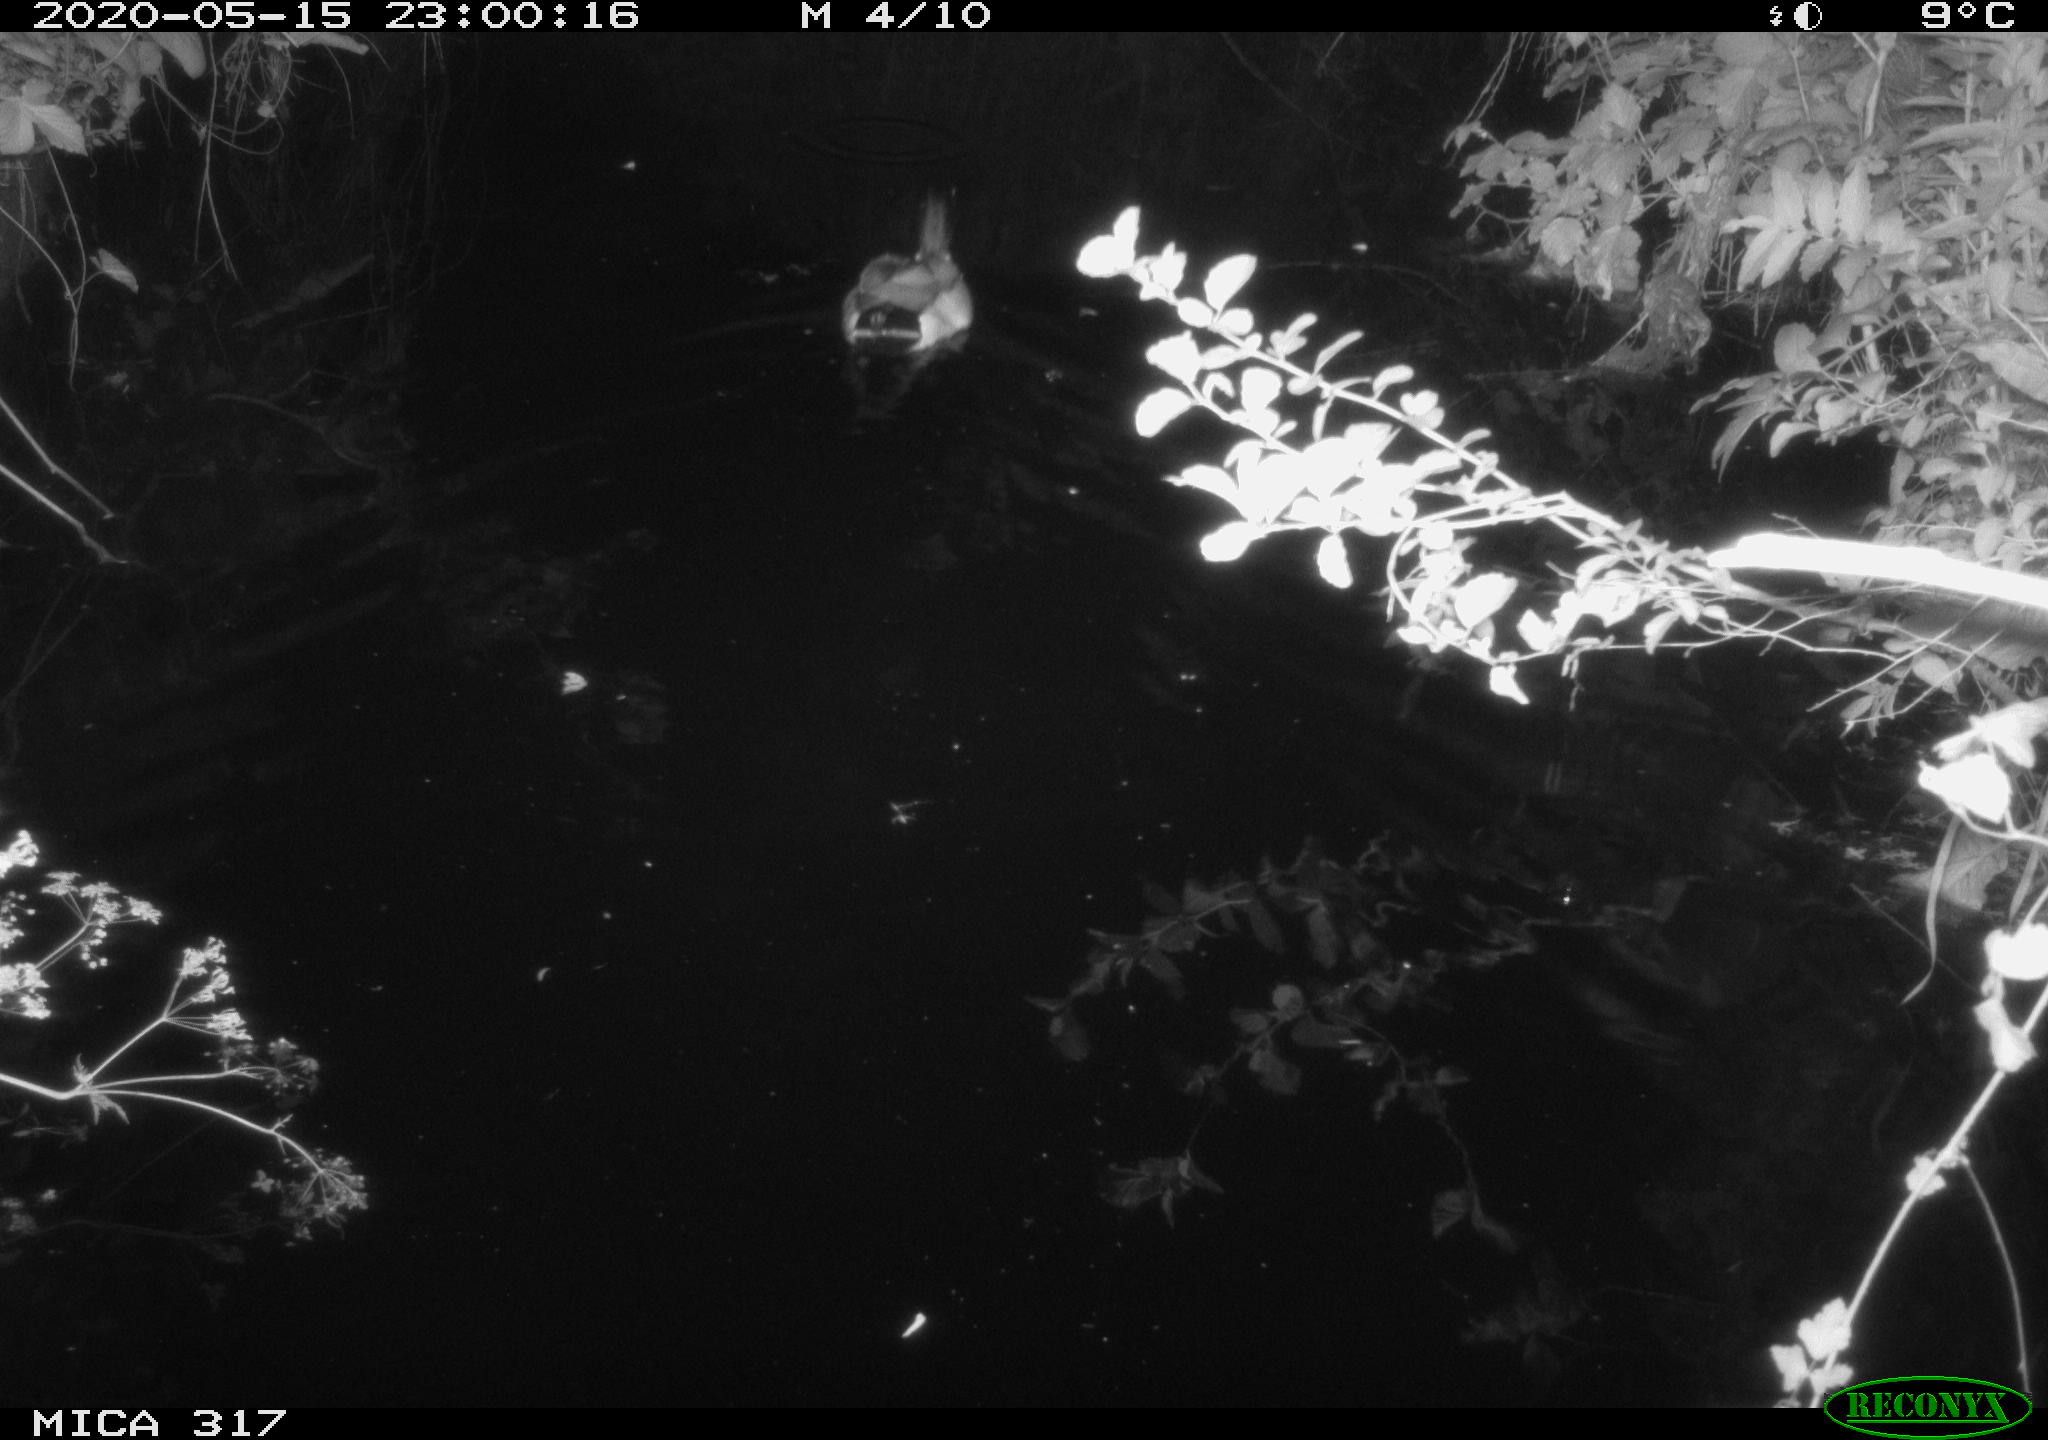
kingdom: Animalia
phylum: Chordata
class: Aves
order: Anseriformes
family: Anatidae
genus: Anas
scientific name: Anas platyrhynchos
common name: Mallard
